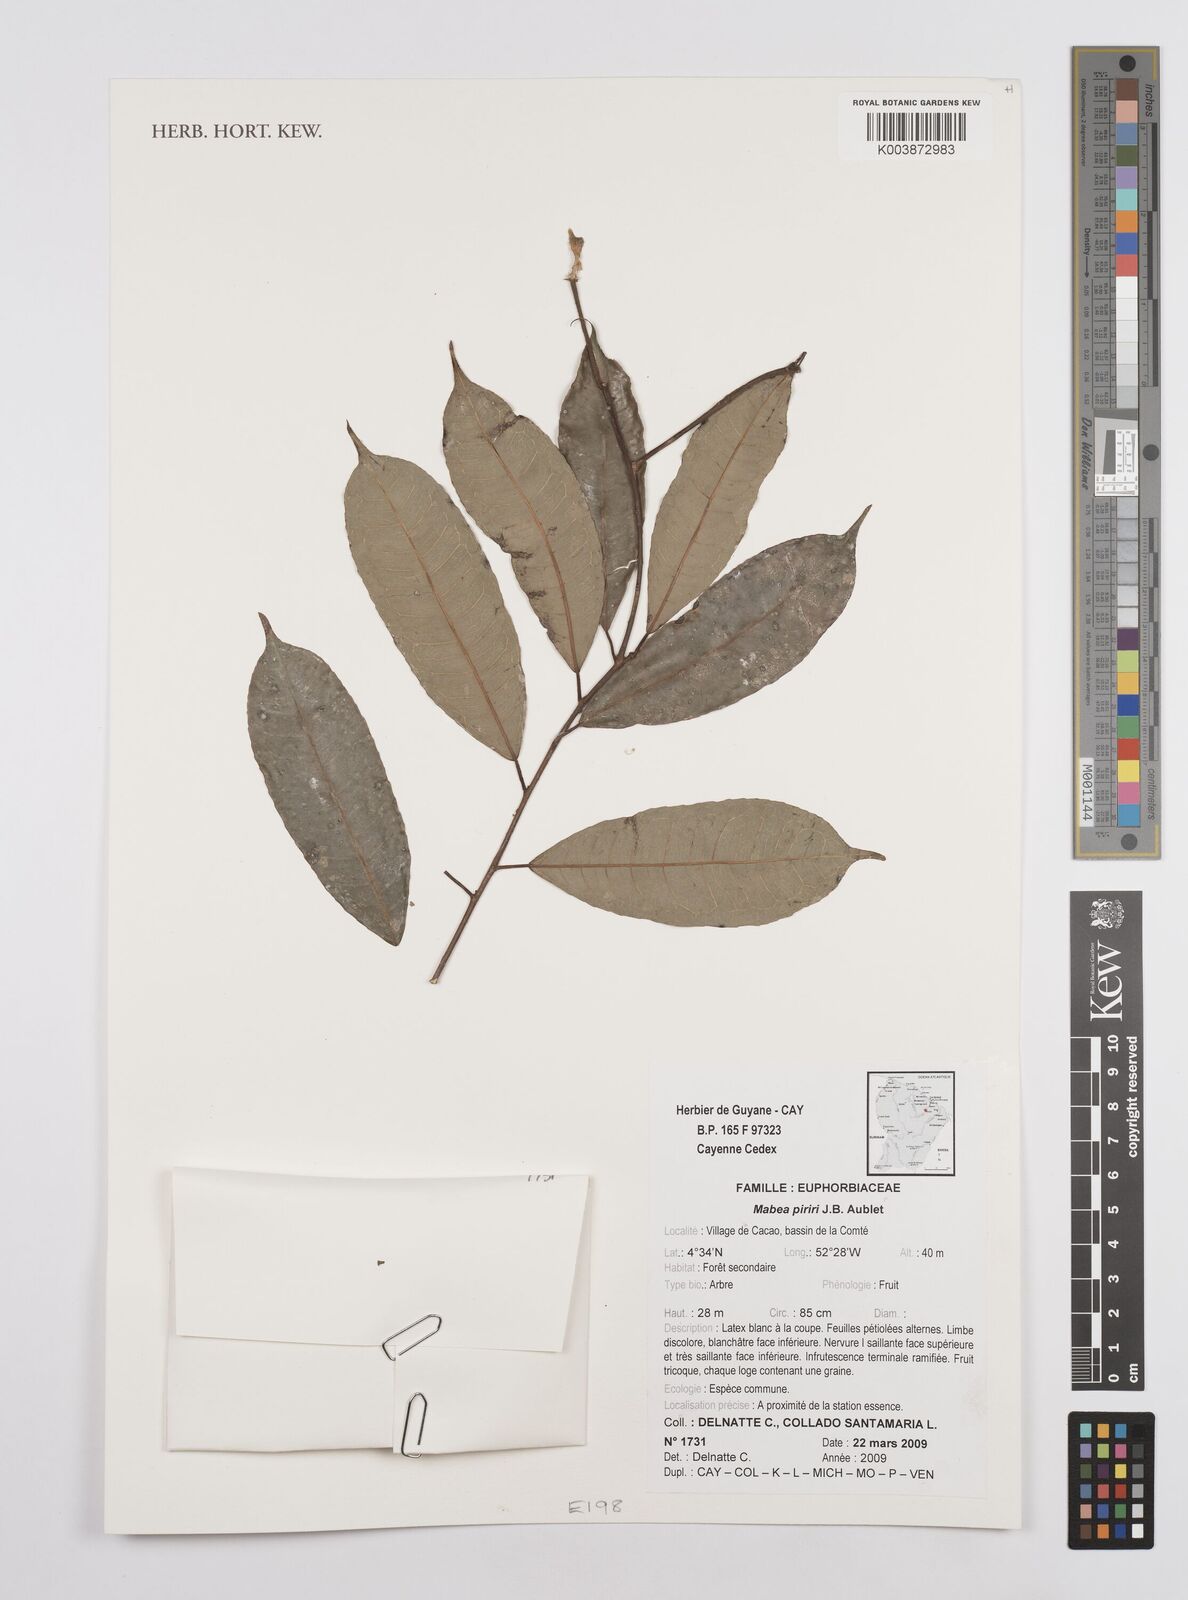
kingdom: Plantae
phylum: Tracheophyta
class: Magnoliopsida
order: Malpighiales
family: Euphorbiaceae
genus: Mabea
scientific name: Mabea piriri
